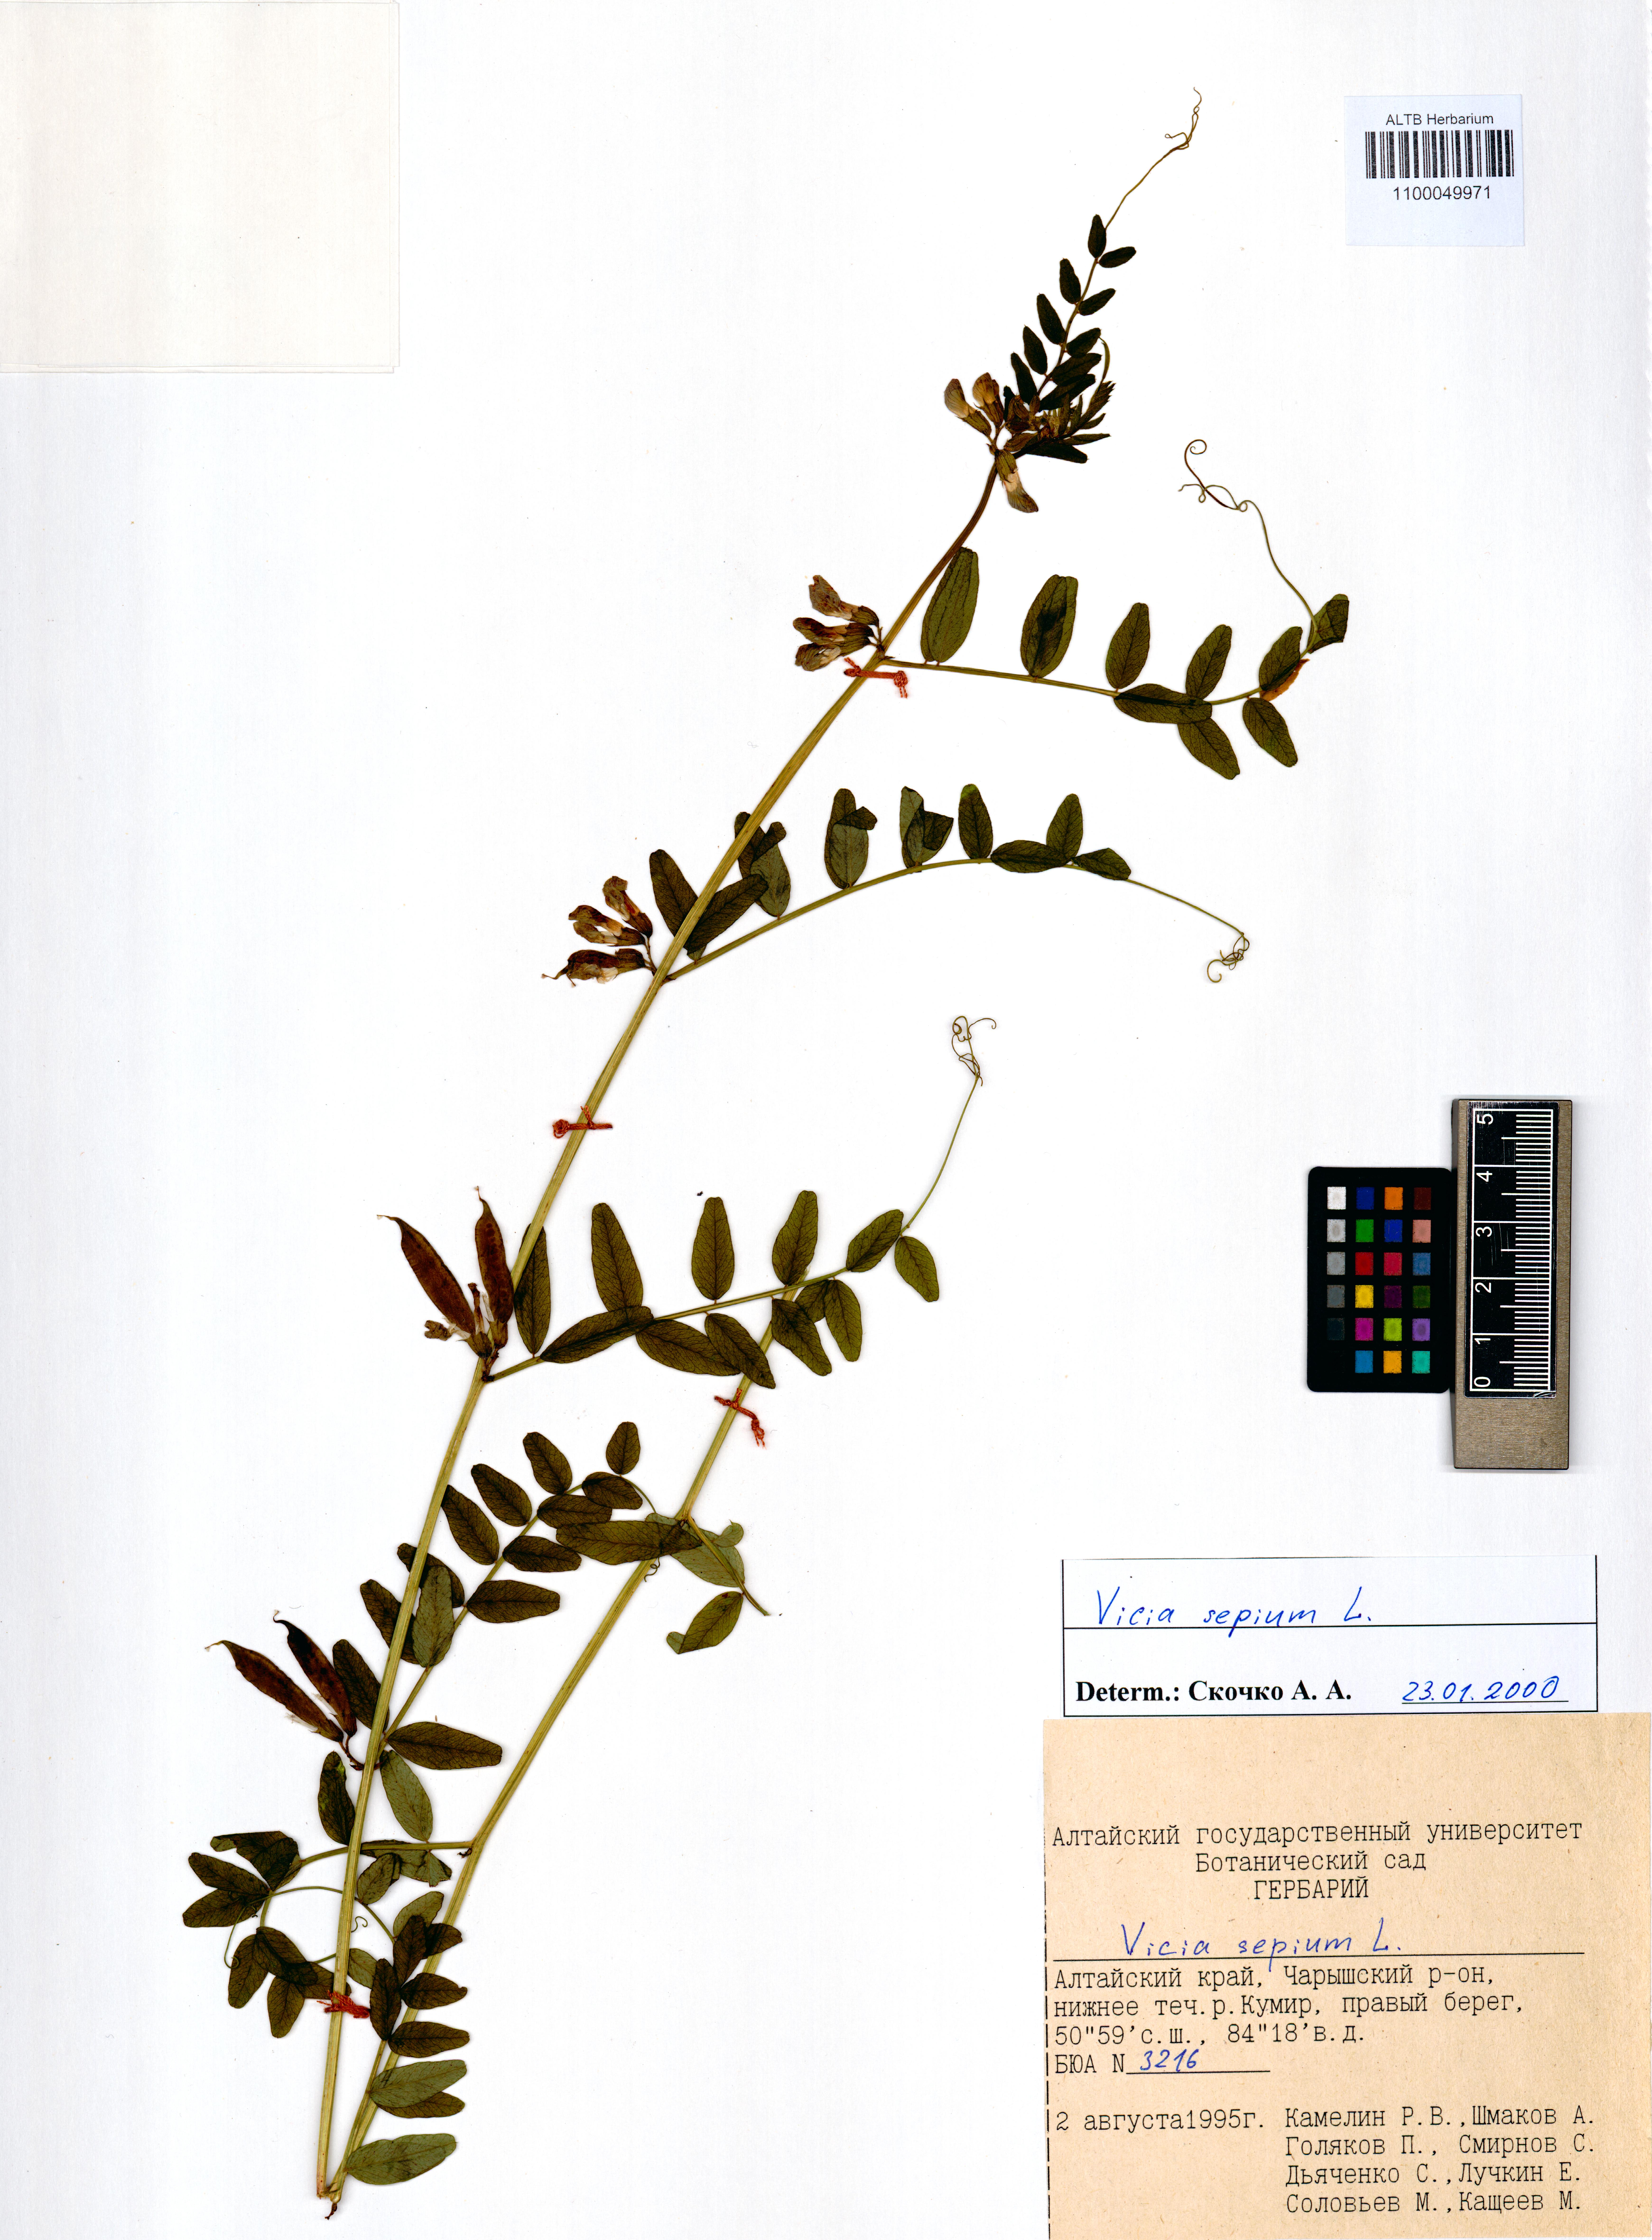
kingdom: Plantae
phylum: Tracheophyta
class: Magnoliopsida
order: Fabales
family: Fabaceae
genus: Vicia
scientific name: Vicia sepium
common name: Bush vetch
